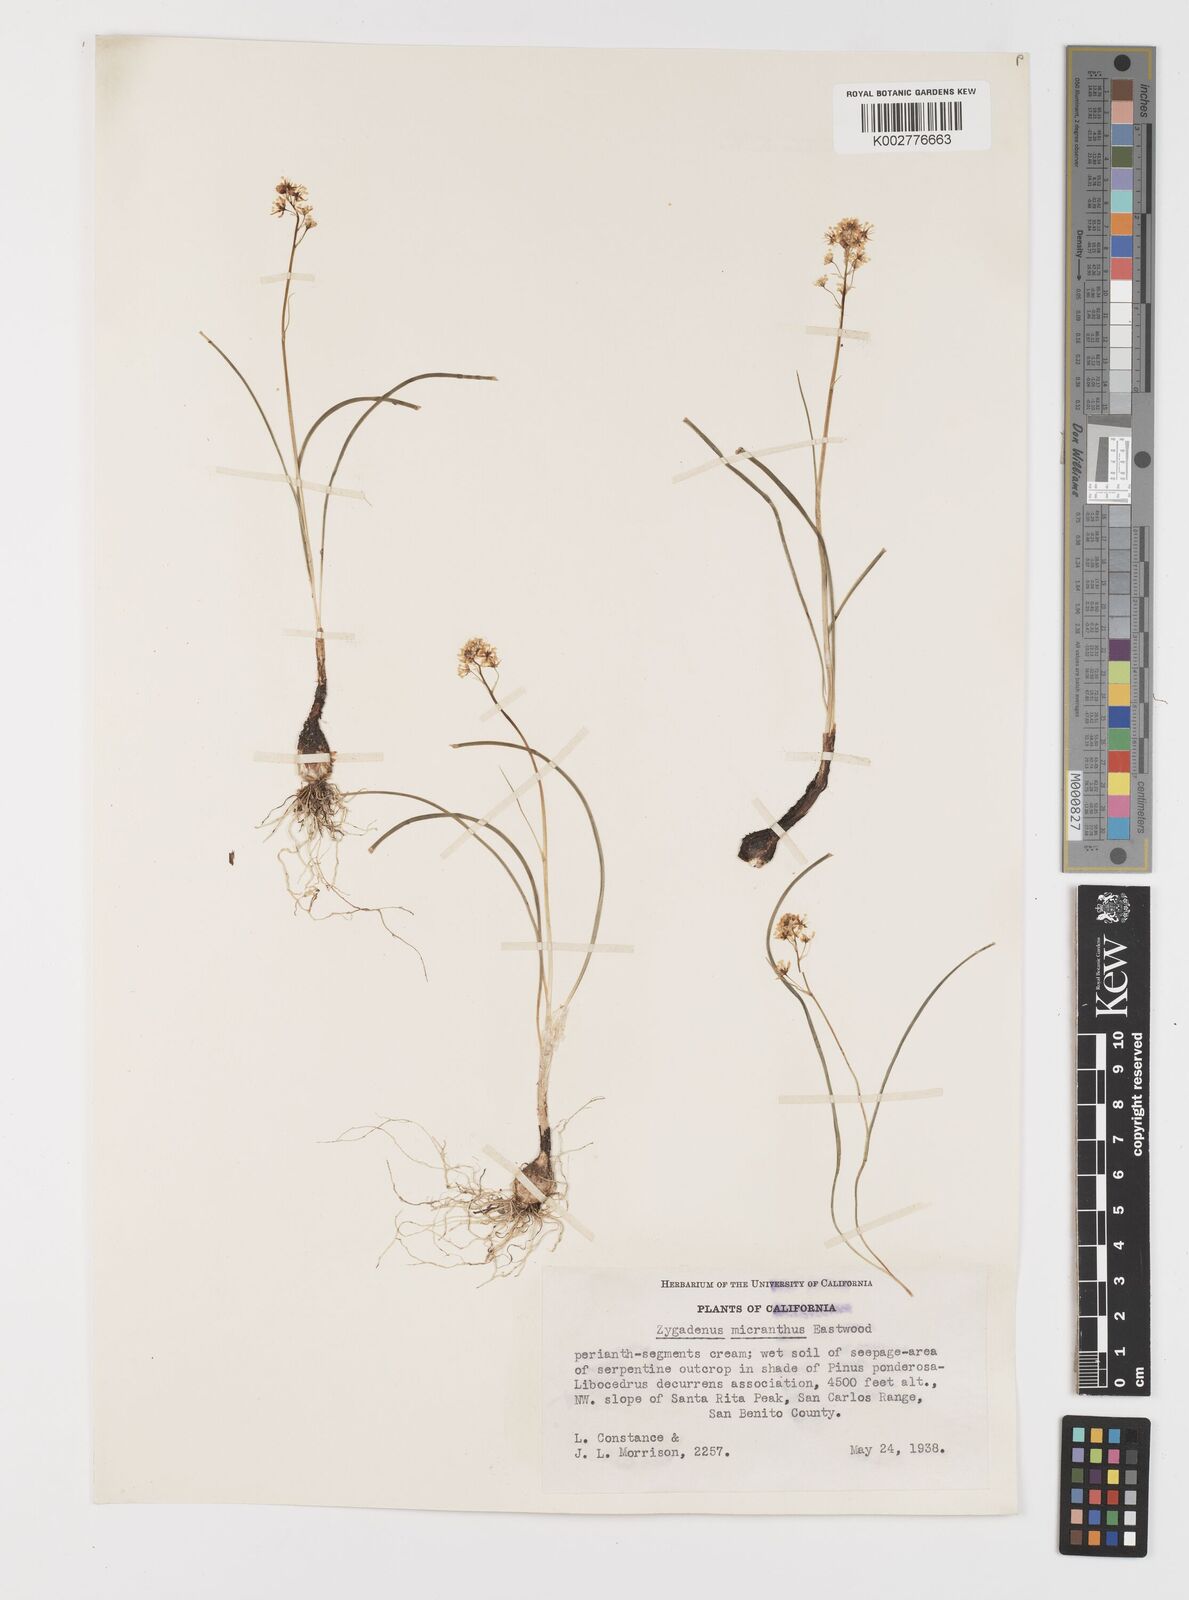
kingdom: Plantae
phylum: Tracheophyta
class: Liliopsida
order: Liliales
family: Melanthiaceae
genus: Toxicoscordion
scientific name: Toxicoscordion venenosum
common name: Meadow death camas
